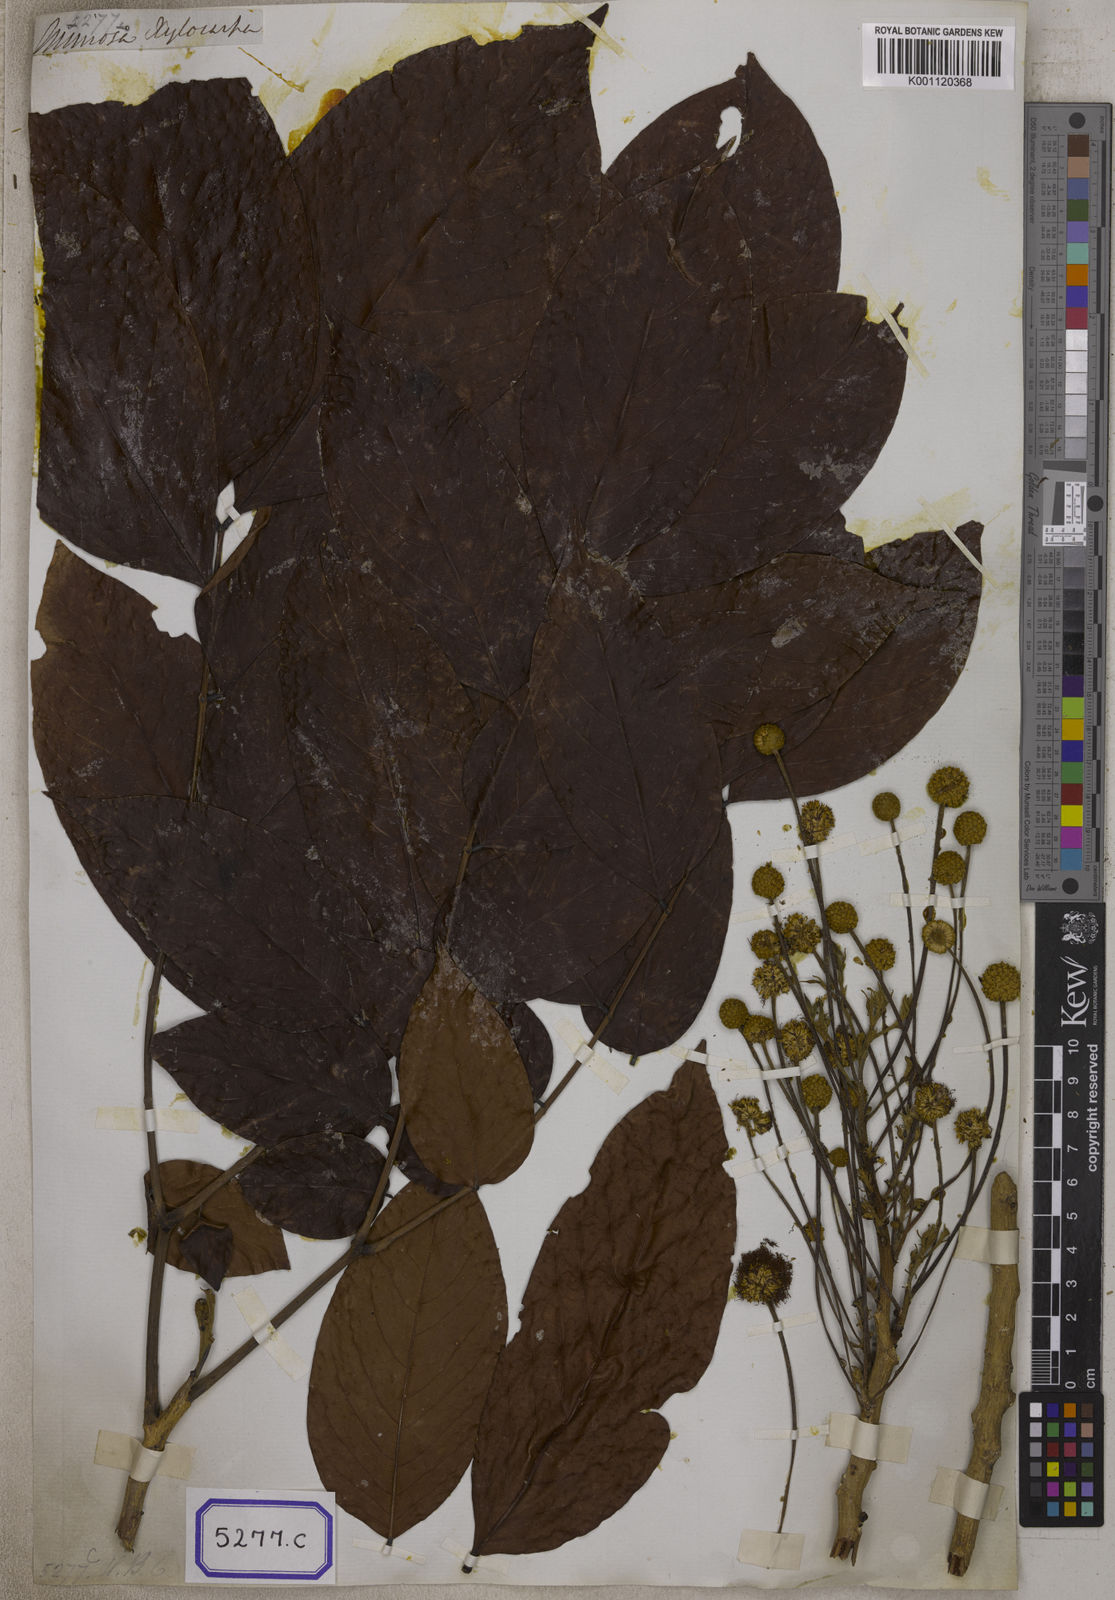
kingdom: Plantae
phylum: Tracheophyta
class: Magnoliopsida
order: Fabales
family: Fabaceae
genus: Xylia
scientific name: Xylia xylocarpa
